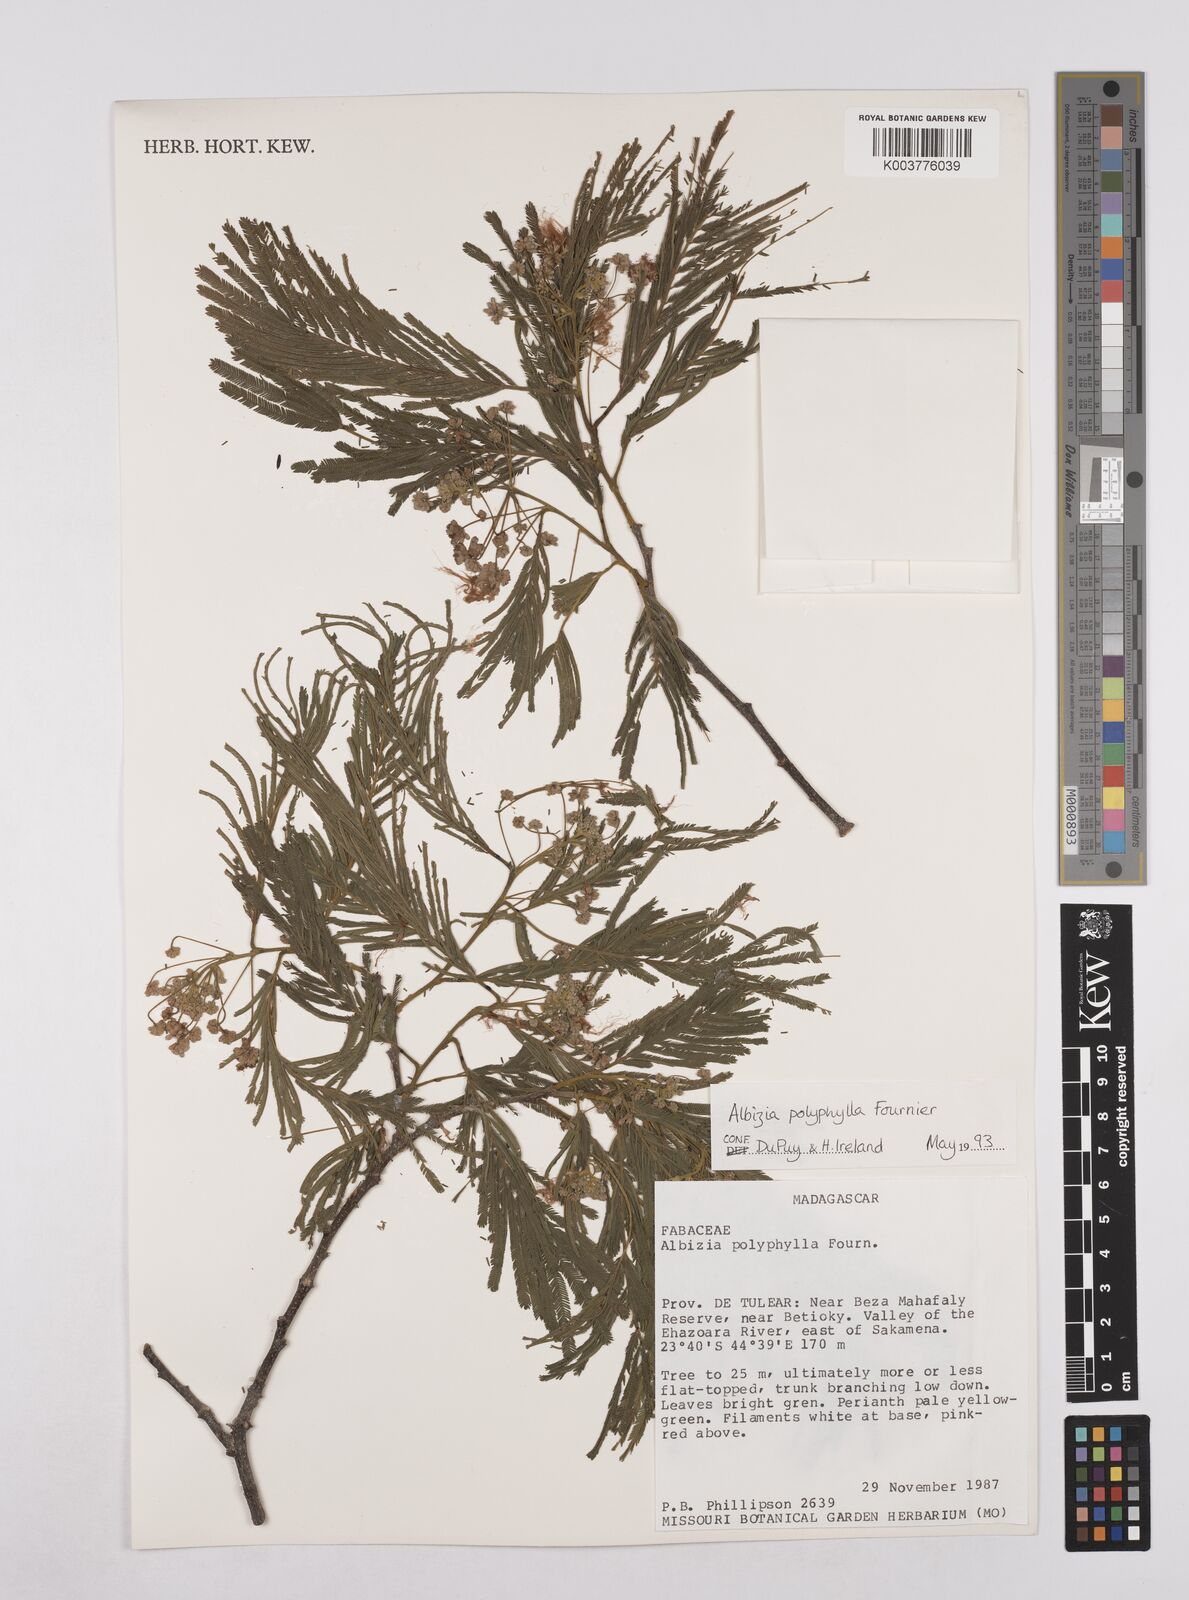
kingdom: Plantae
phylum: Tracheophyta
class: Magnoliopsida
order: Fabales
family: Fabaceae
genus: Albizia
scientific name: Albizia polyphylla
